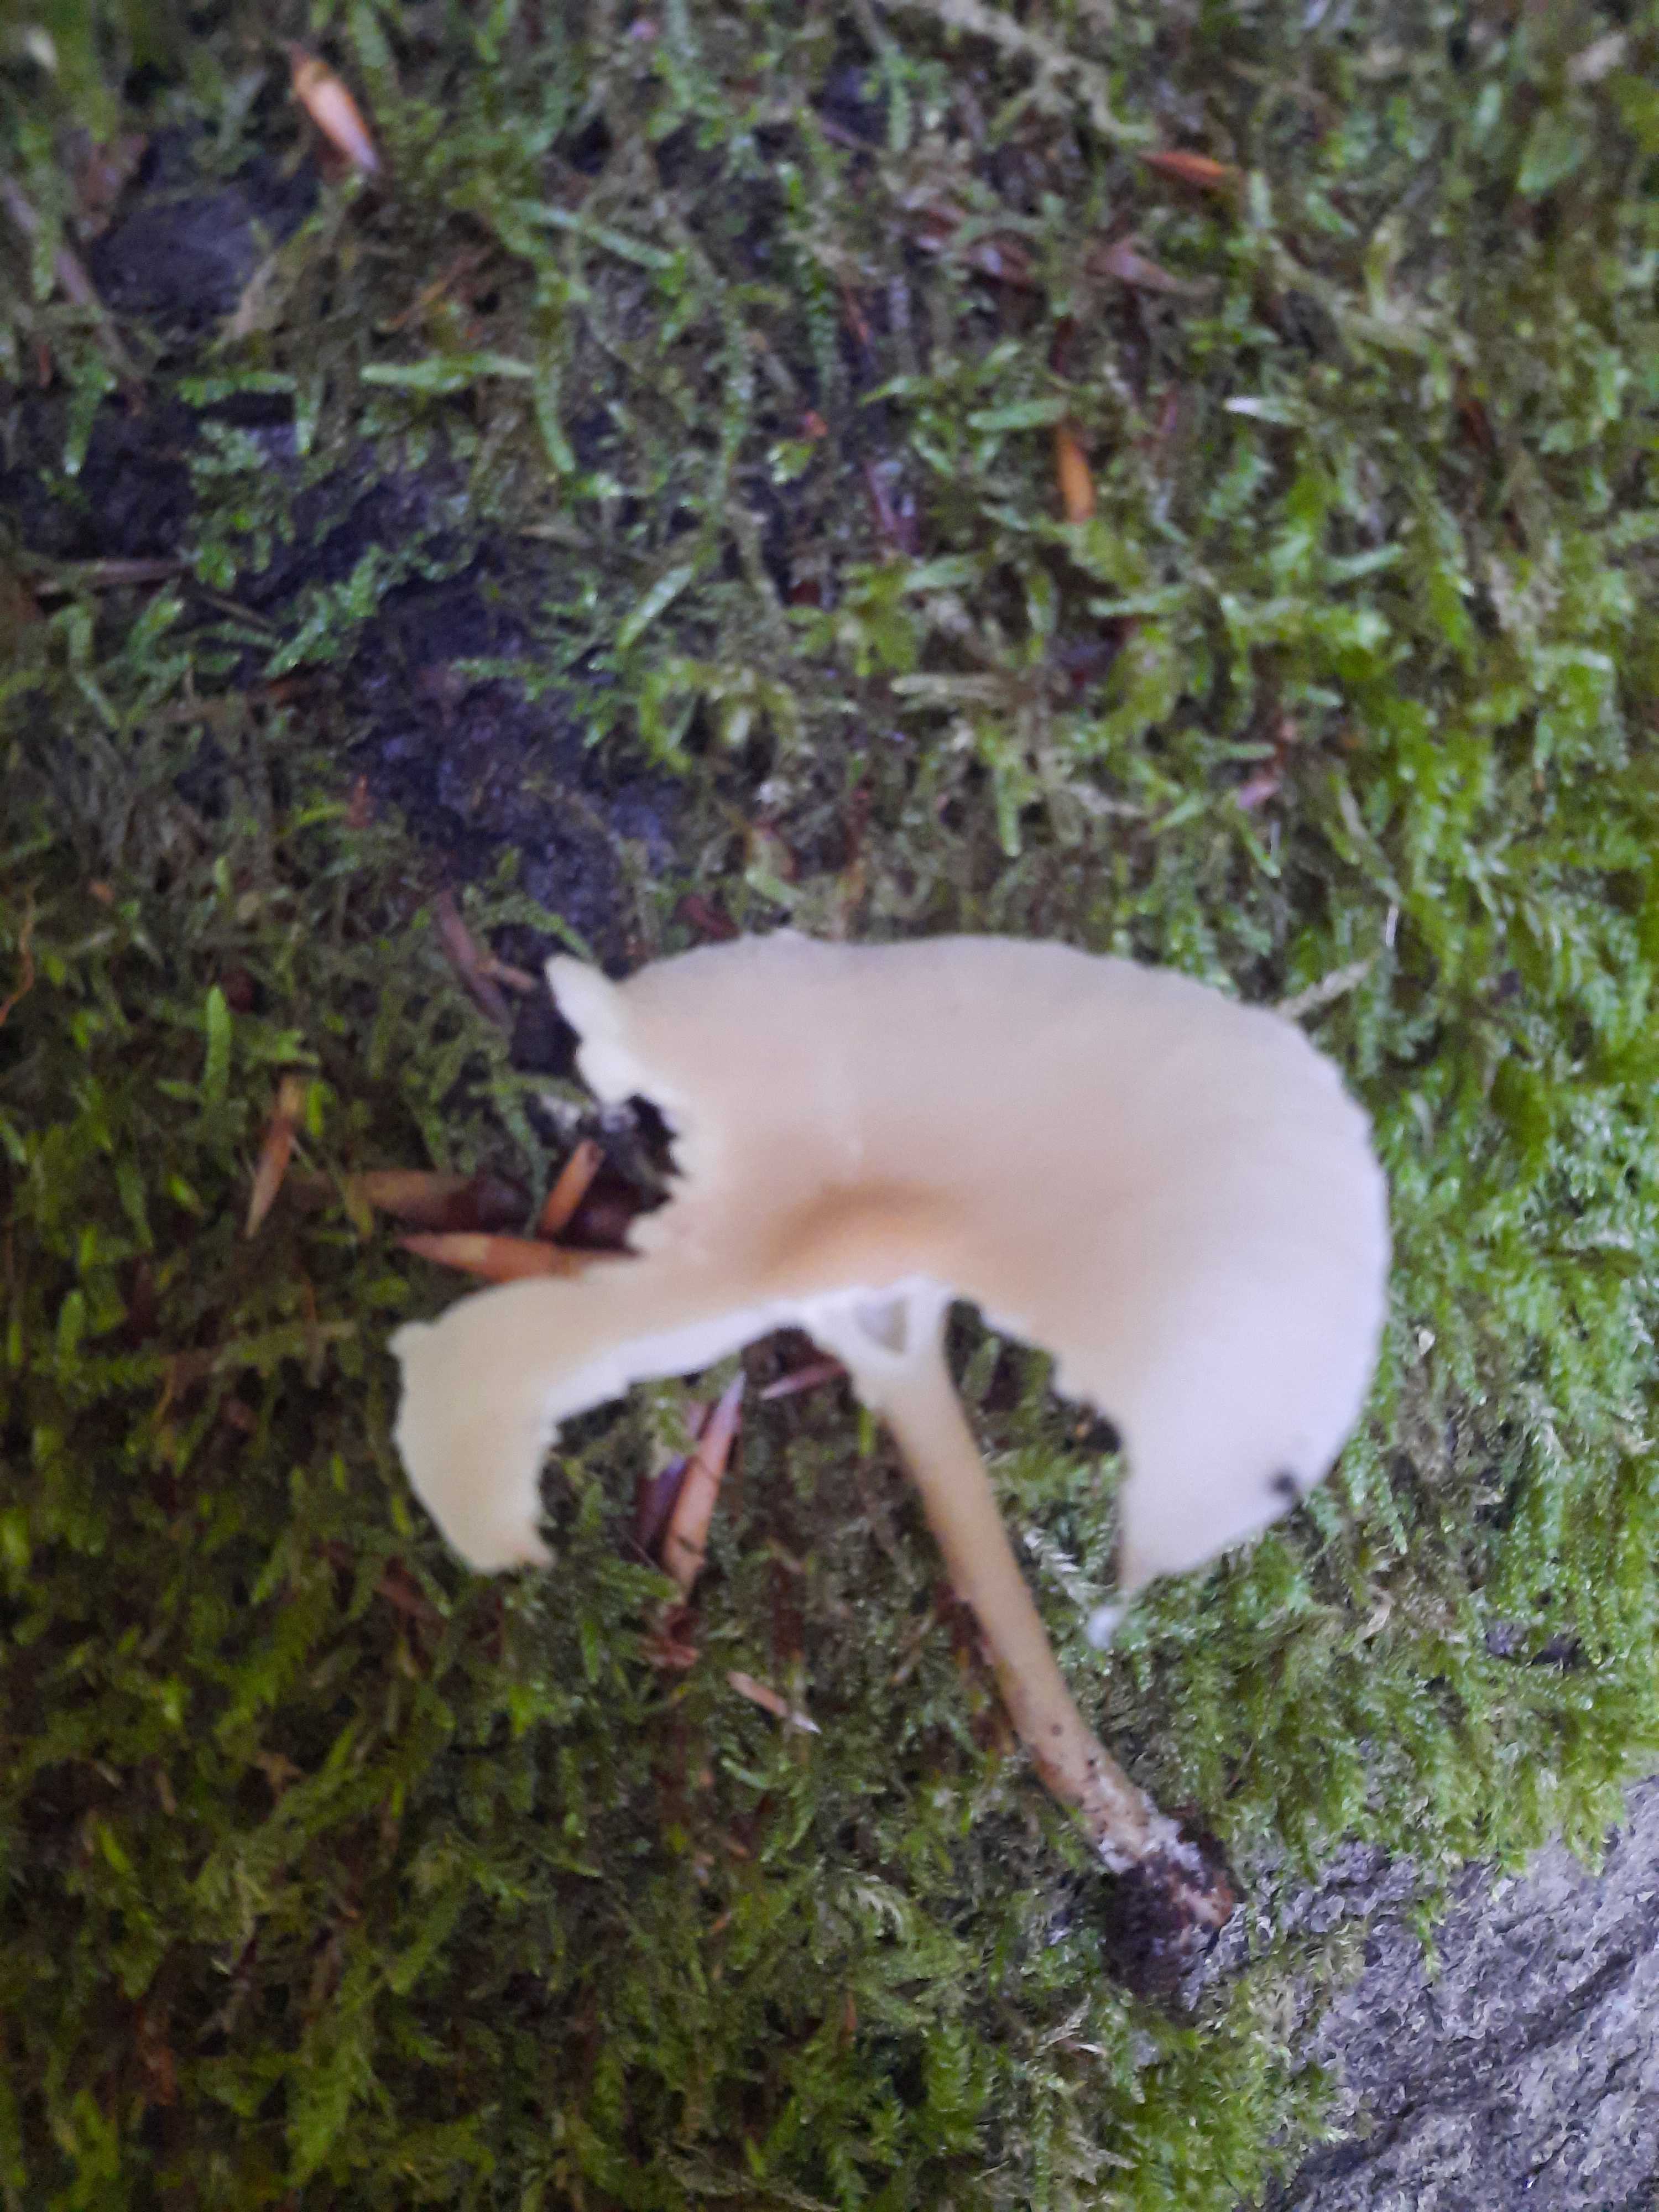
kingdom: Fungi
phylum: Basidiomycota
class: Agaricomycetes
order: Agaricales
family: Mycenaceae
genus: Mycena
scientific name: Mycena galericulata
